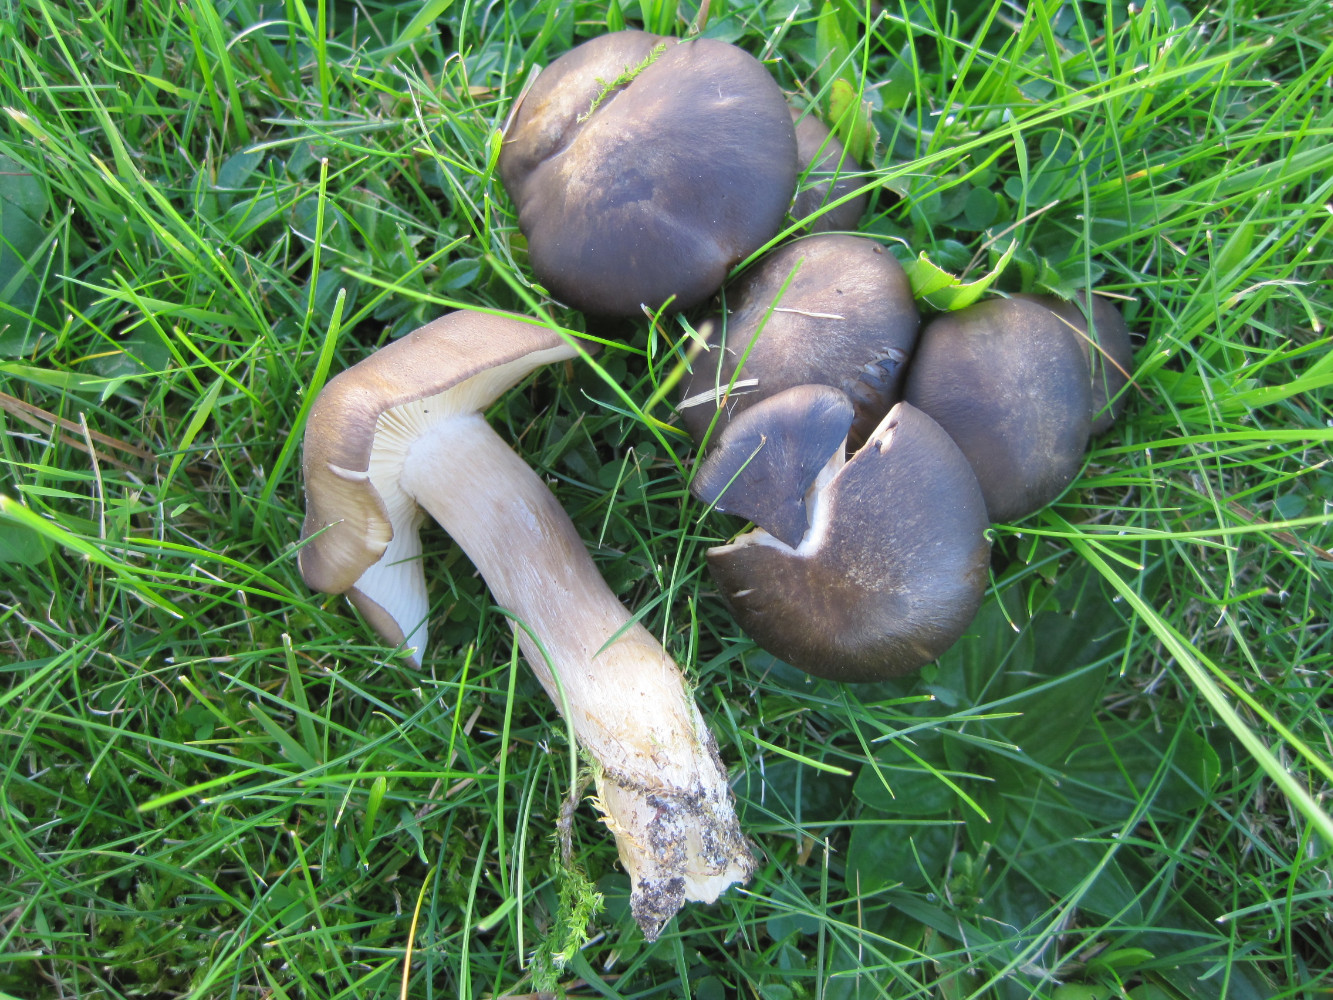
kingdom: Fungi
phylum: Basidiomycota
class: Agaricomycetes
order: Agaricales
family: Lyophyllaceae
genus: Lyophyllum
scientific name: Lyophyllum decastes
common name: Clustered domecap
